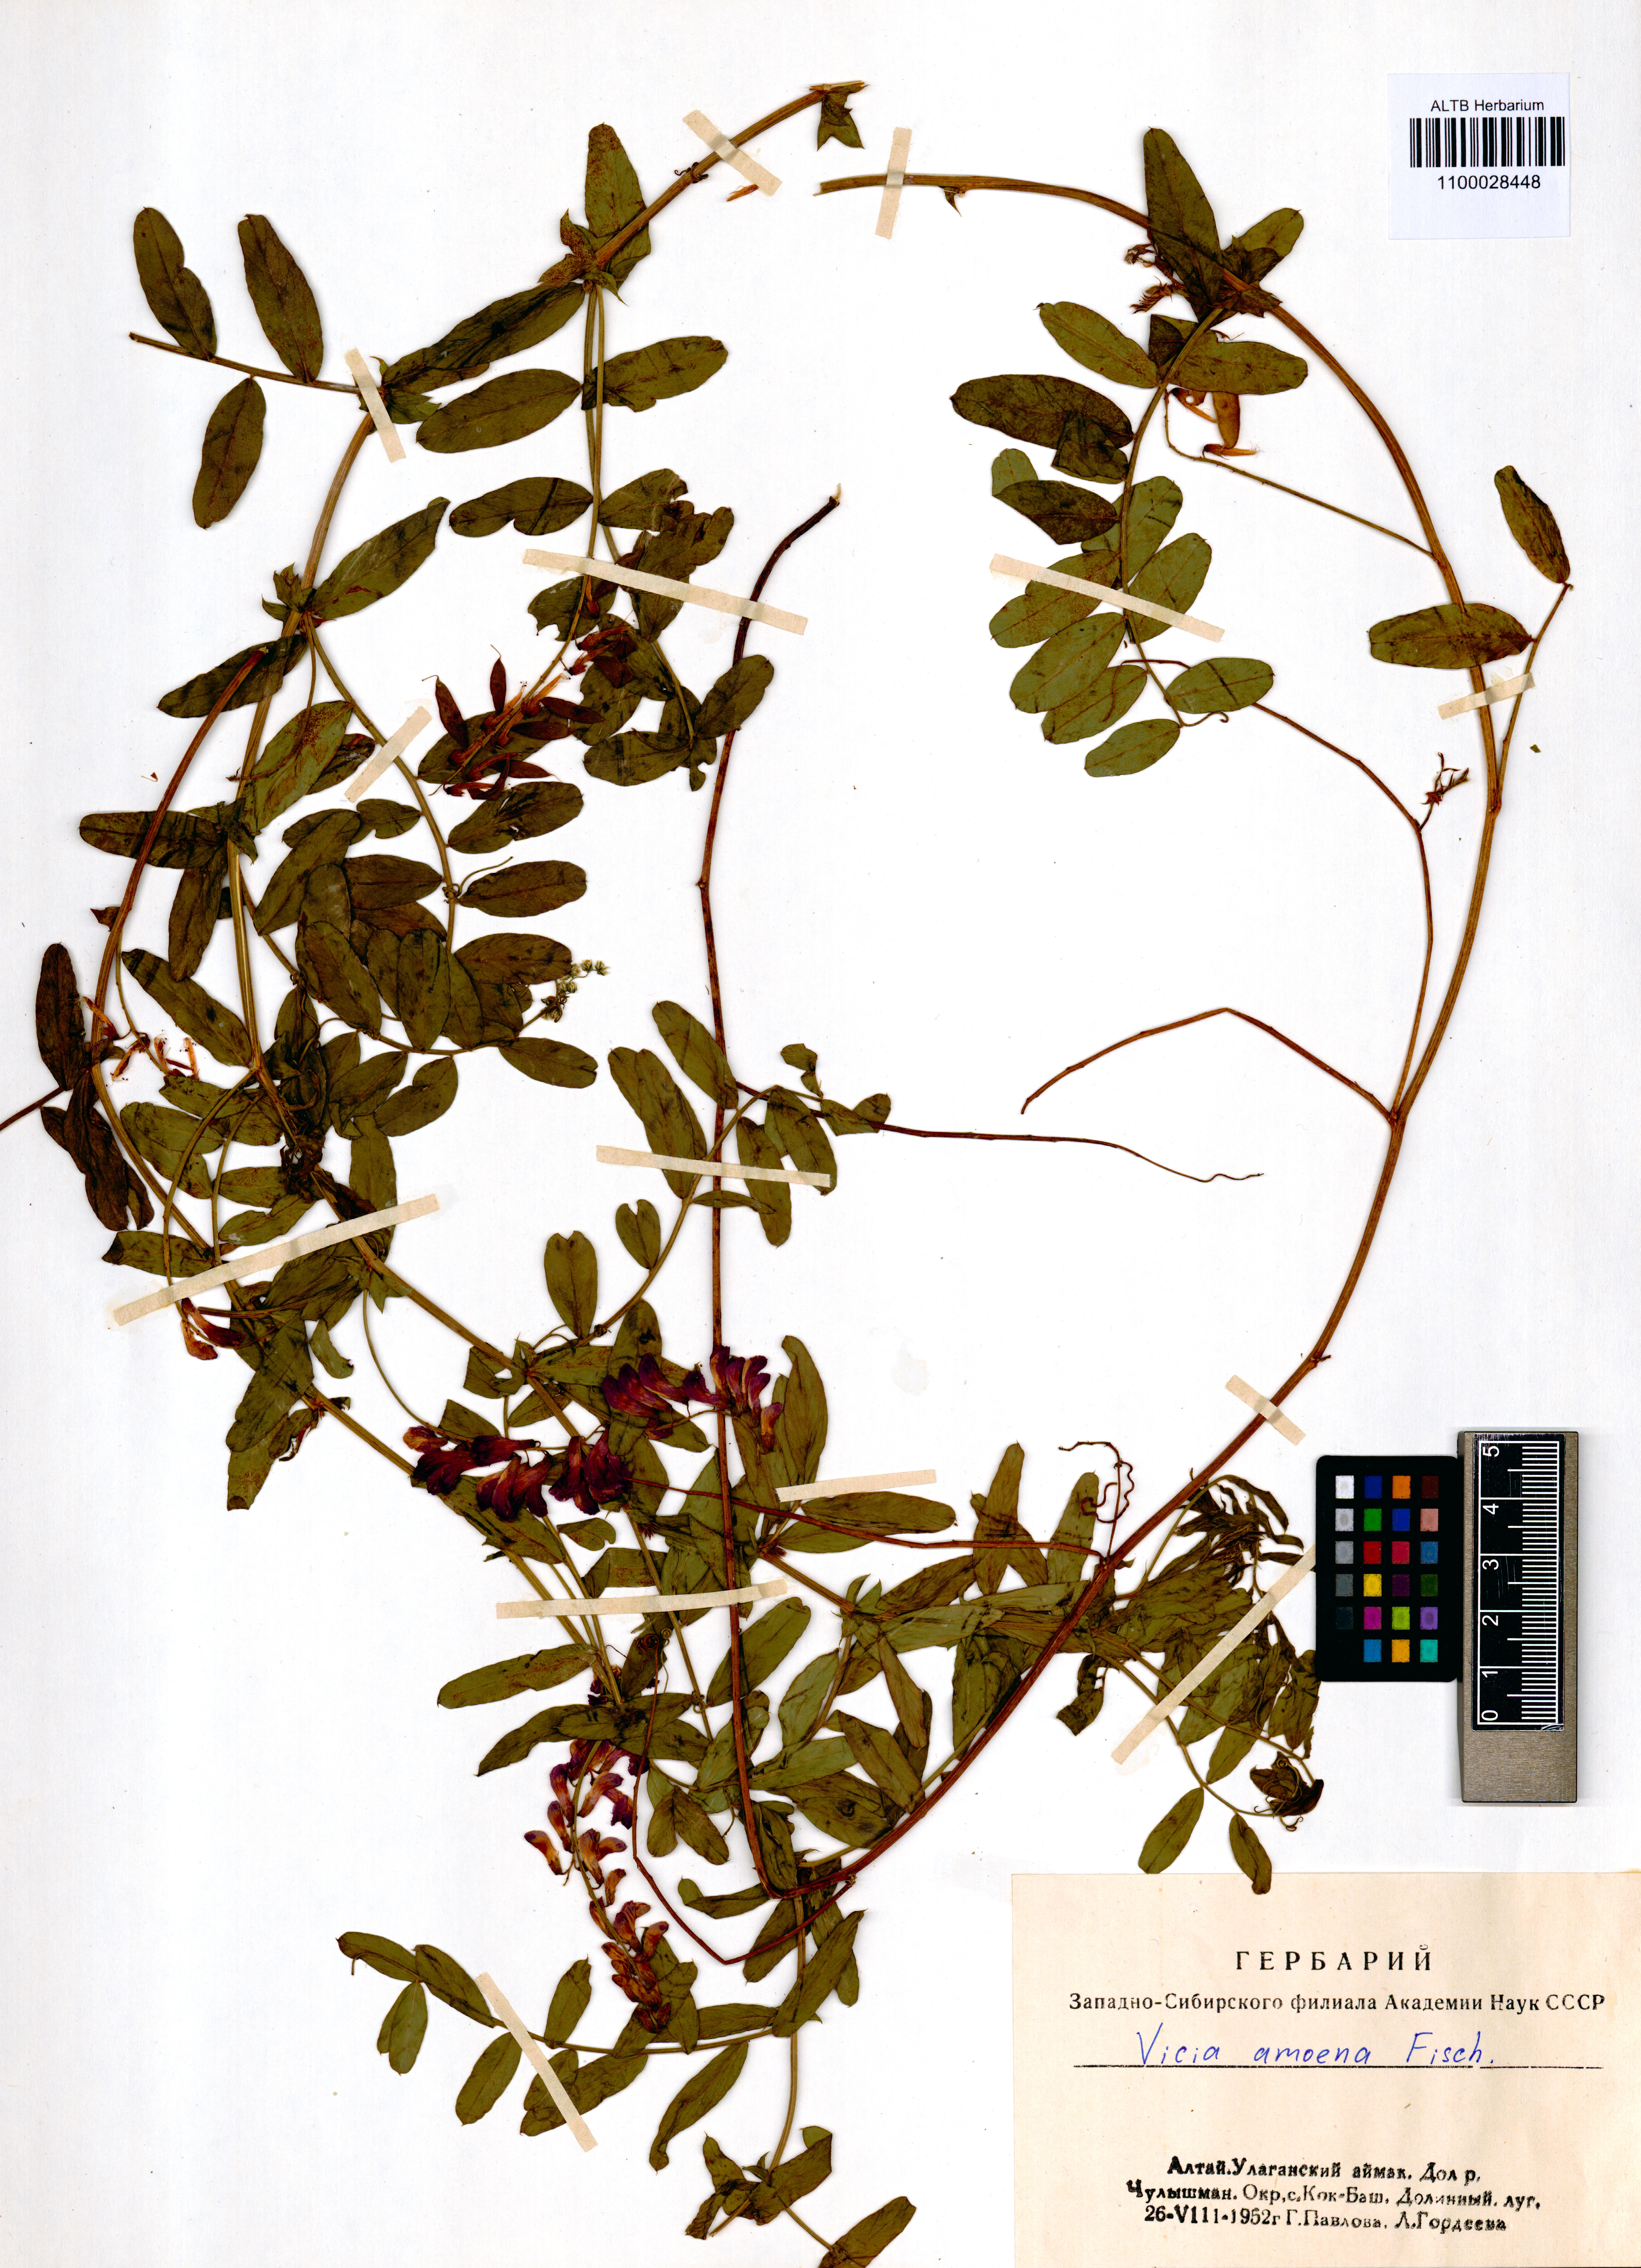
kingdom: Plantae
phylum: Tracheophyta
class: Magnoliopsida
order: Fabales
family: Fabaceae
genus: Vicia
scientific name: Vicia amoena
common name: Cheder ebs
